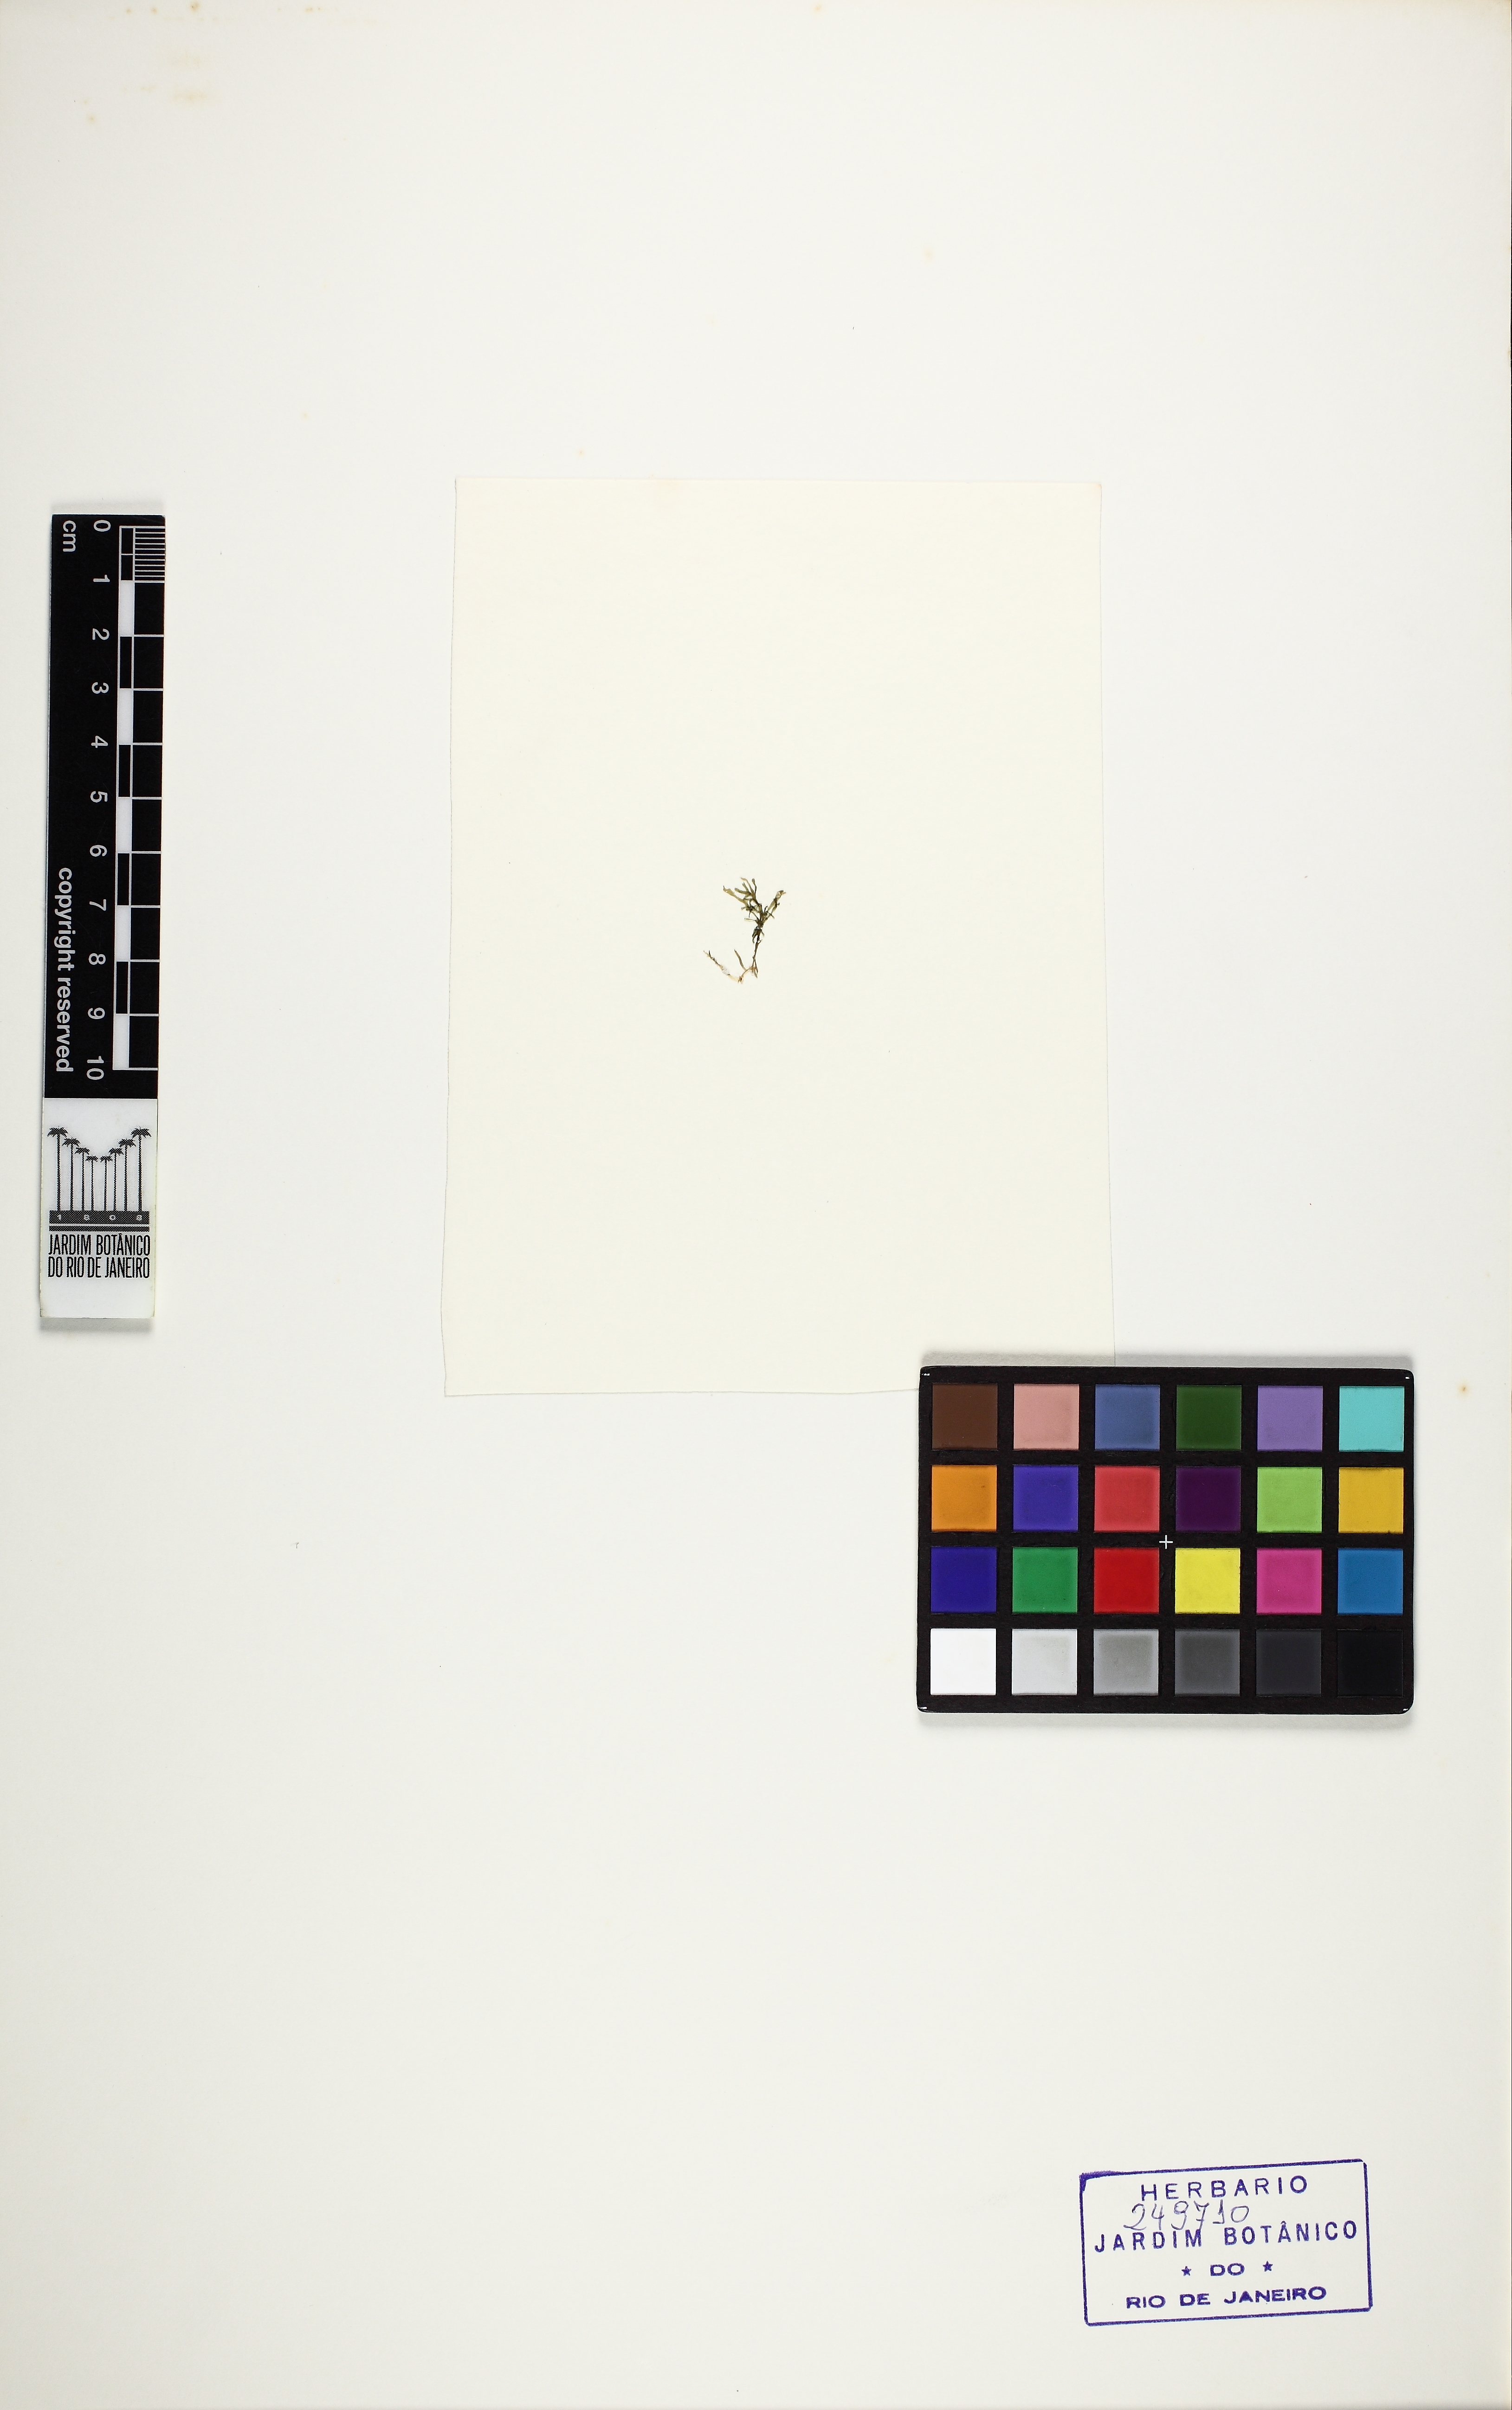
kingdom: Plantae
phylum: Rhodophyta
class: Florideophyceae
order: Gelidiales
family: Gelidiaceae
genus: Gelidium
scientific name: Gelidium pusillum
